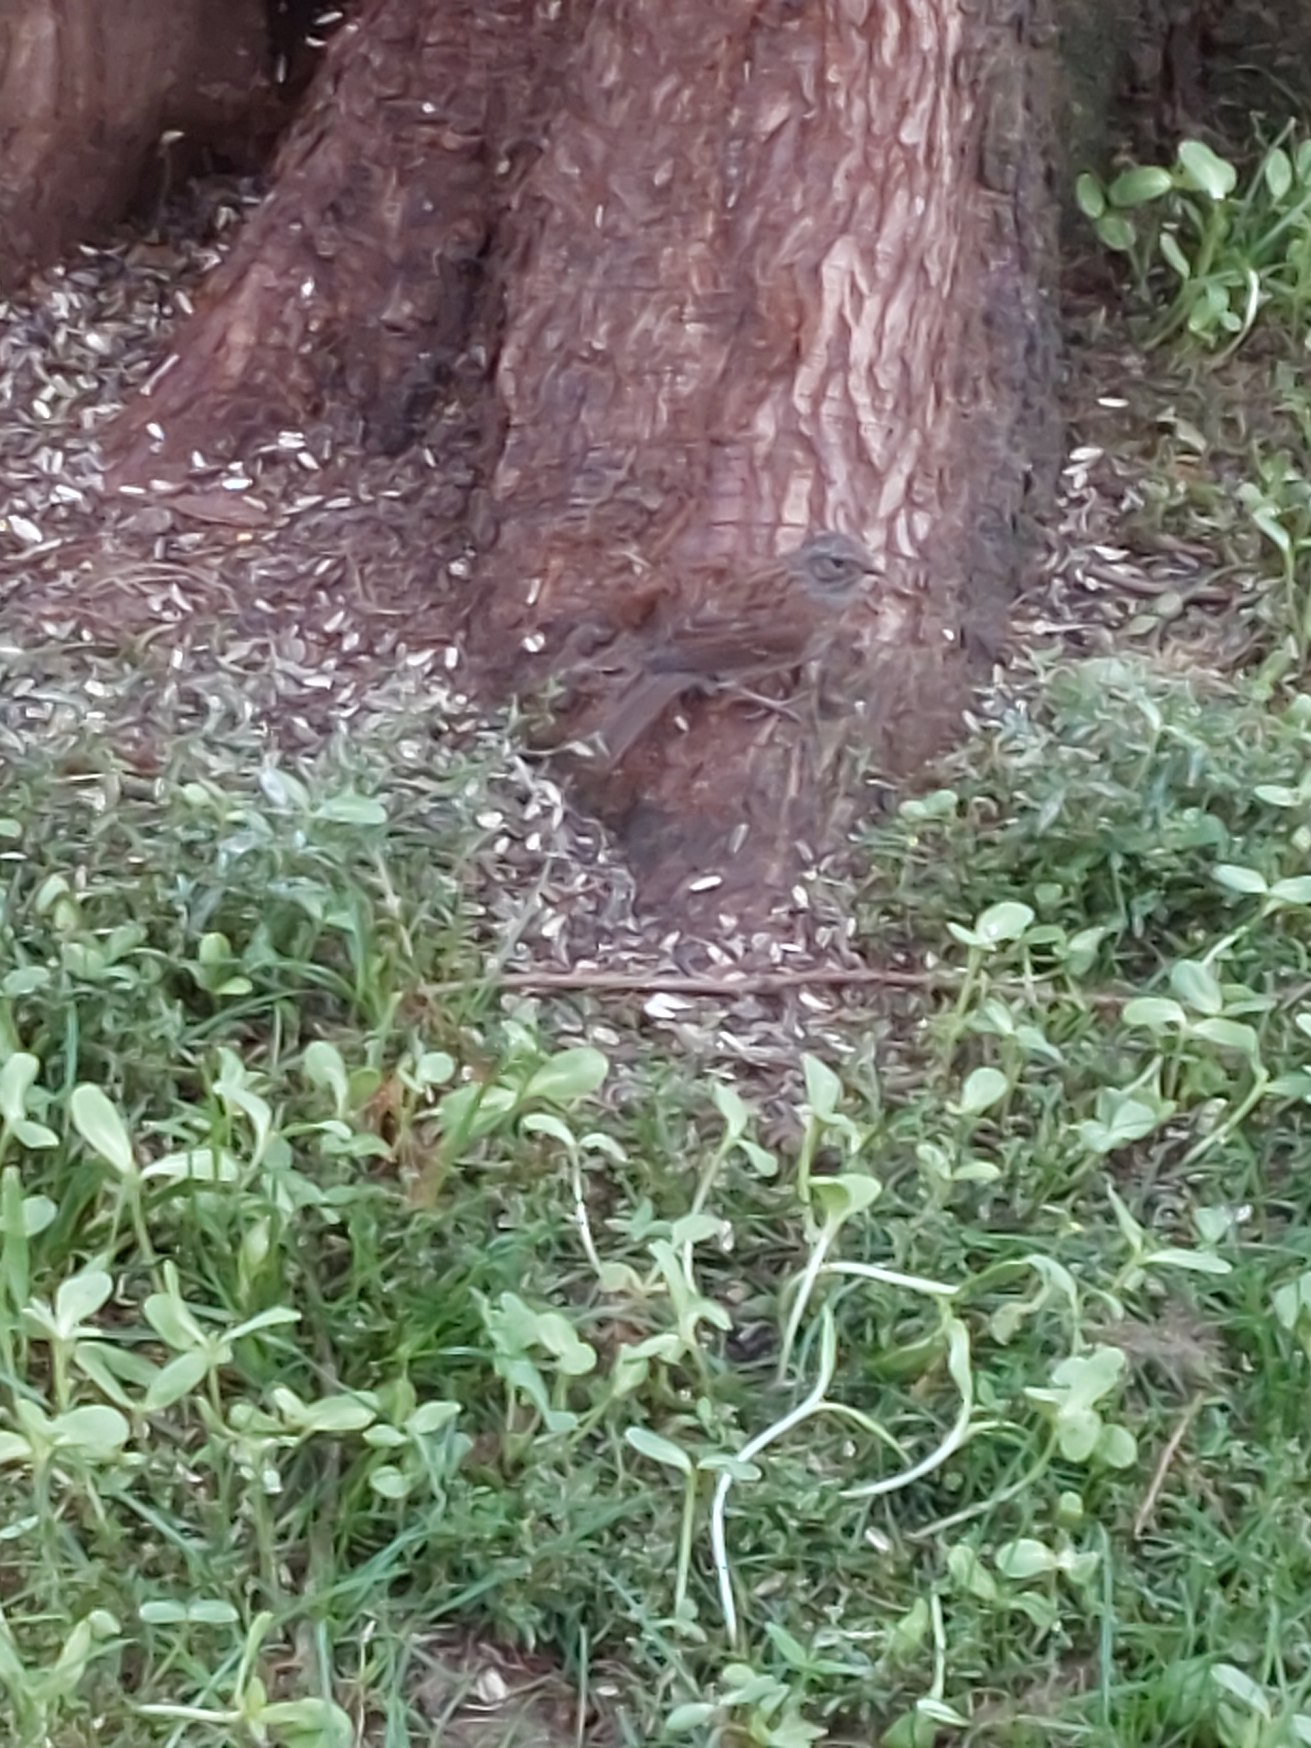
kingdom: Animalia
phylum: Chordata
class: Aves
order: Passeriformes
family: Prunellidae
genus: Prunella
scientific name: Prunella modularis
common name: Jernspurv
